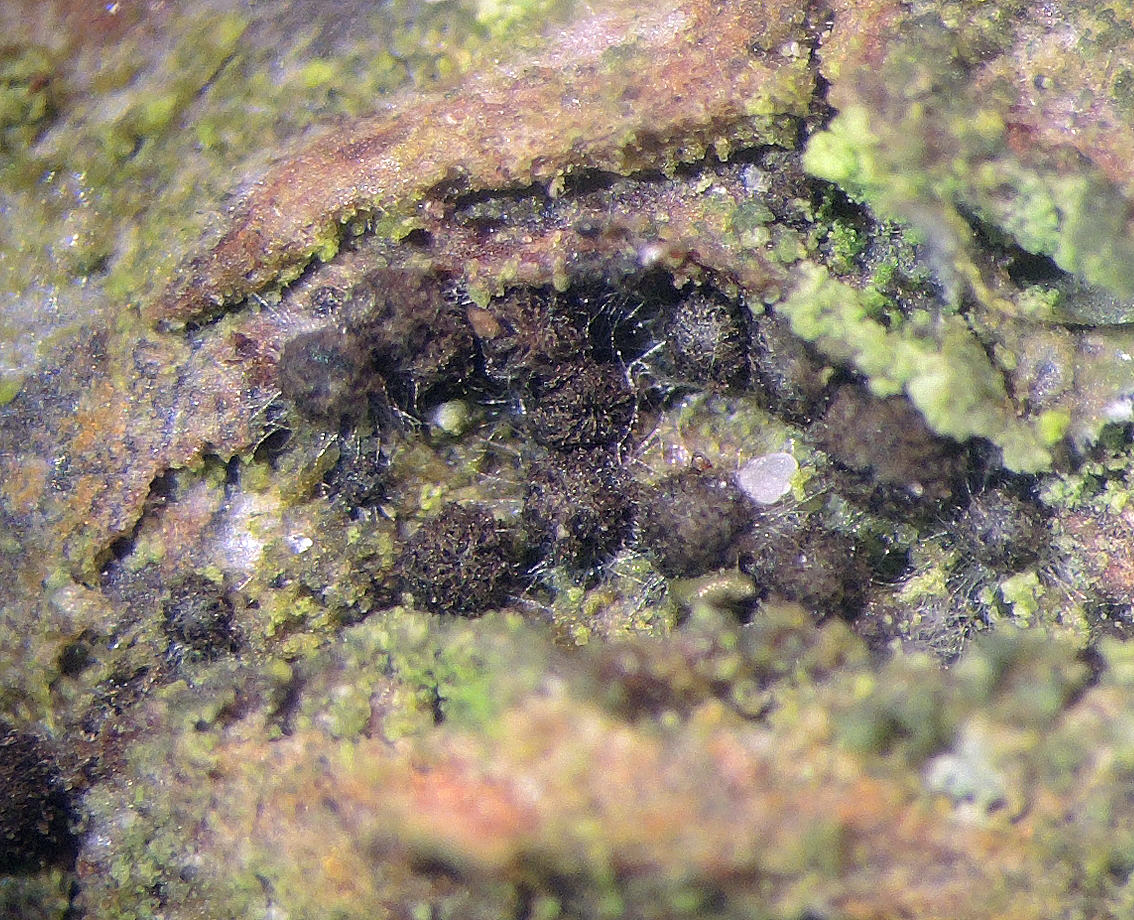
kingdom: Fungi
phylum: Ascomycota
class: Leotiomycetes
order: Helotiales
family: Mollisiaceae
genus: Mollisia
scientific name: Mollisia rosae
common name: rose-gråskive
